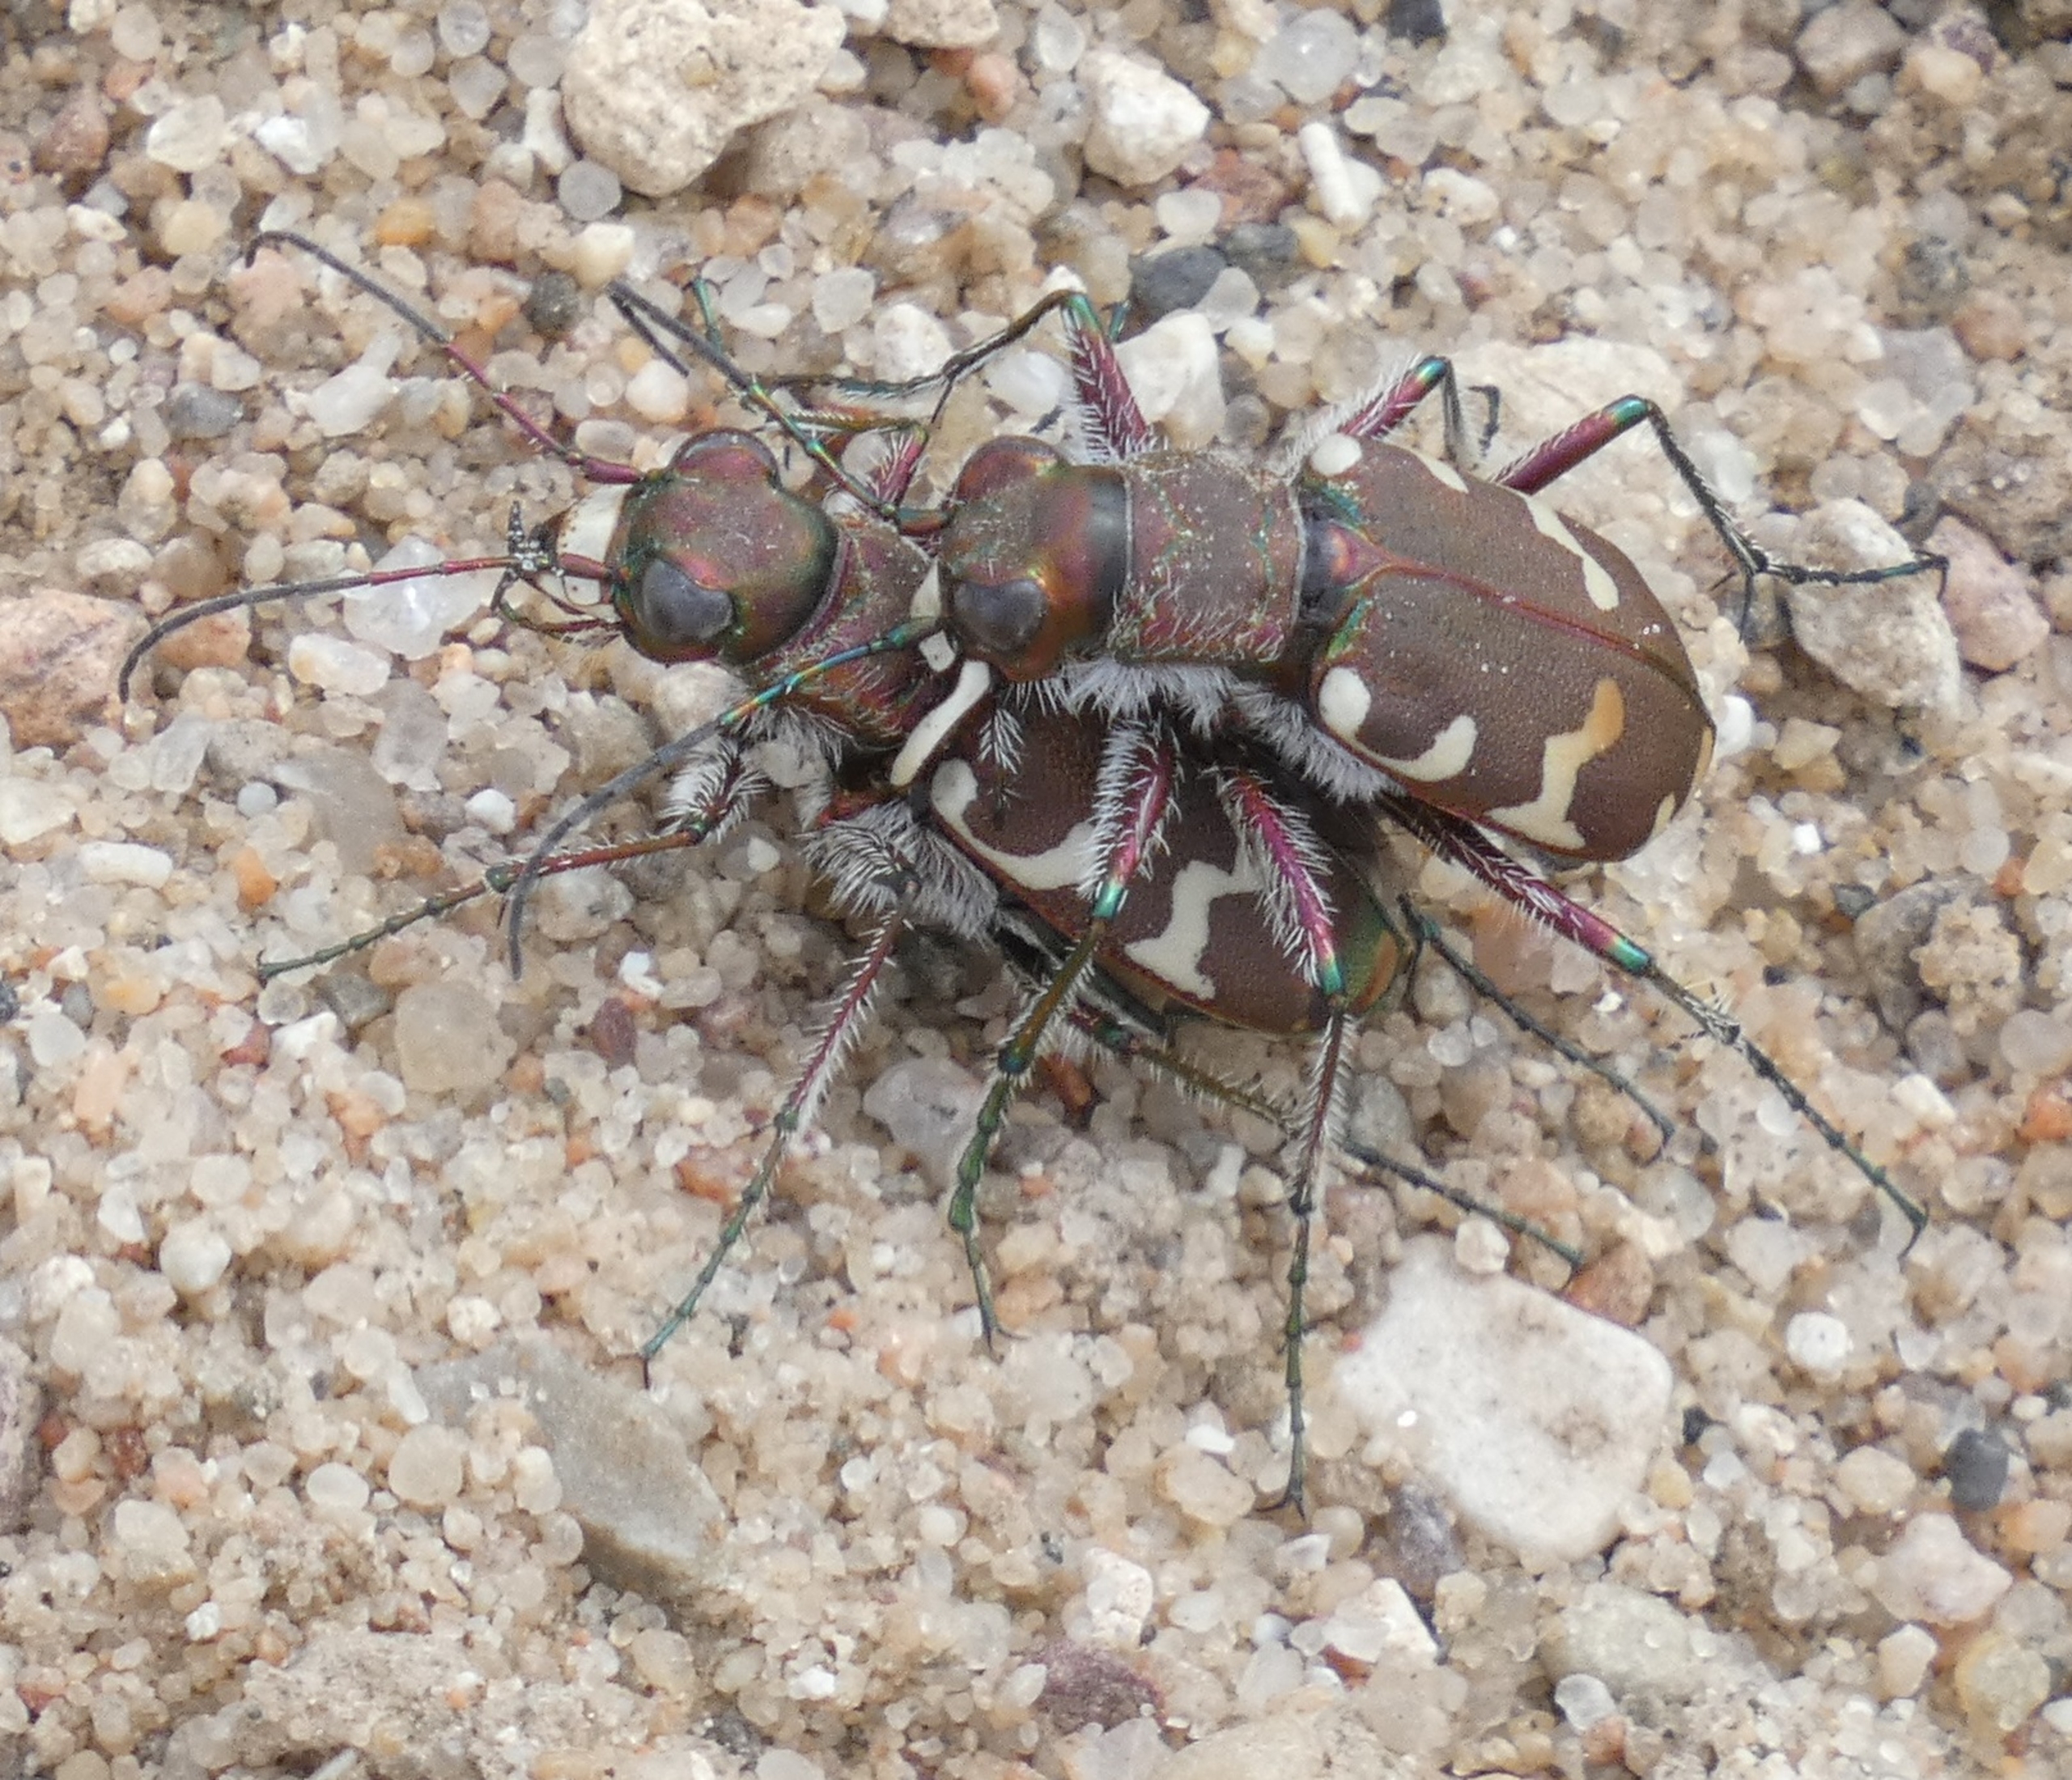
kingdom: Animalia
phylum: Arthropoda
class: Insecta
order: Coleoptera
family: Carabidae
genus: Cicindela
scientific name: Cicindela hybrida
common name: Brun sandspringer
